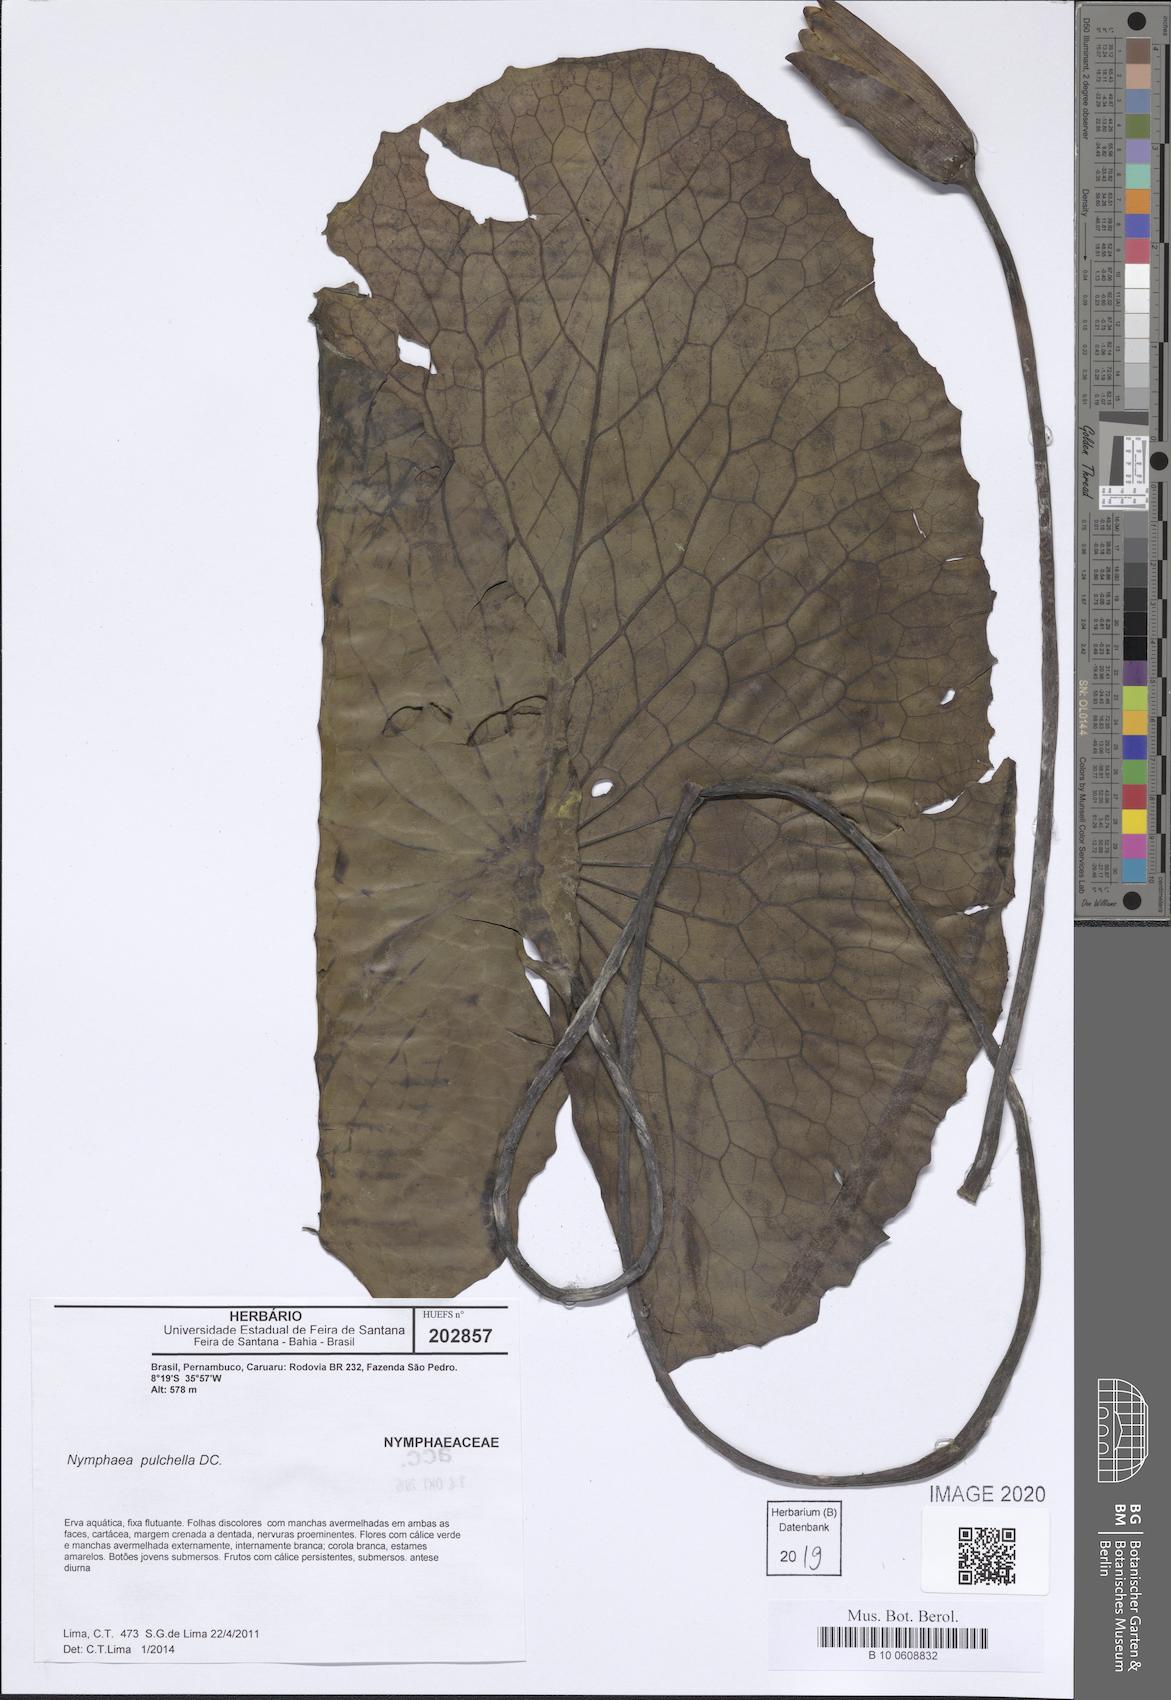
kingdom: Plantae
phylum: Tracheophyta
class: Magnoliopsida
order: Nymphaeales
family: Nymphaeaceae
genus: Nymphaea
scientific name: Nymphaea pulchella
